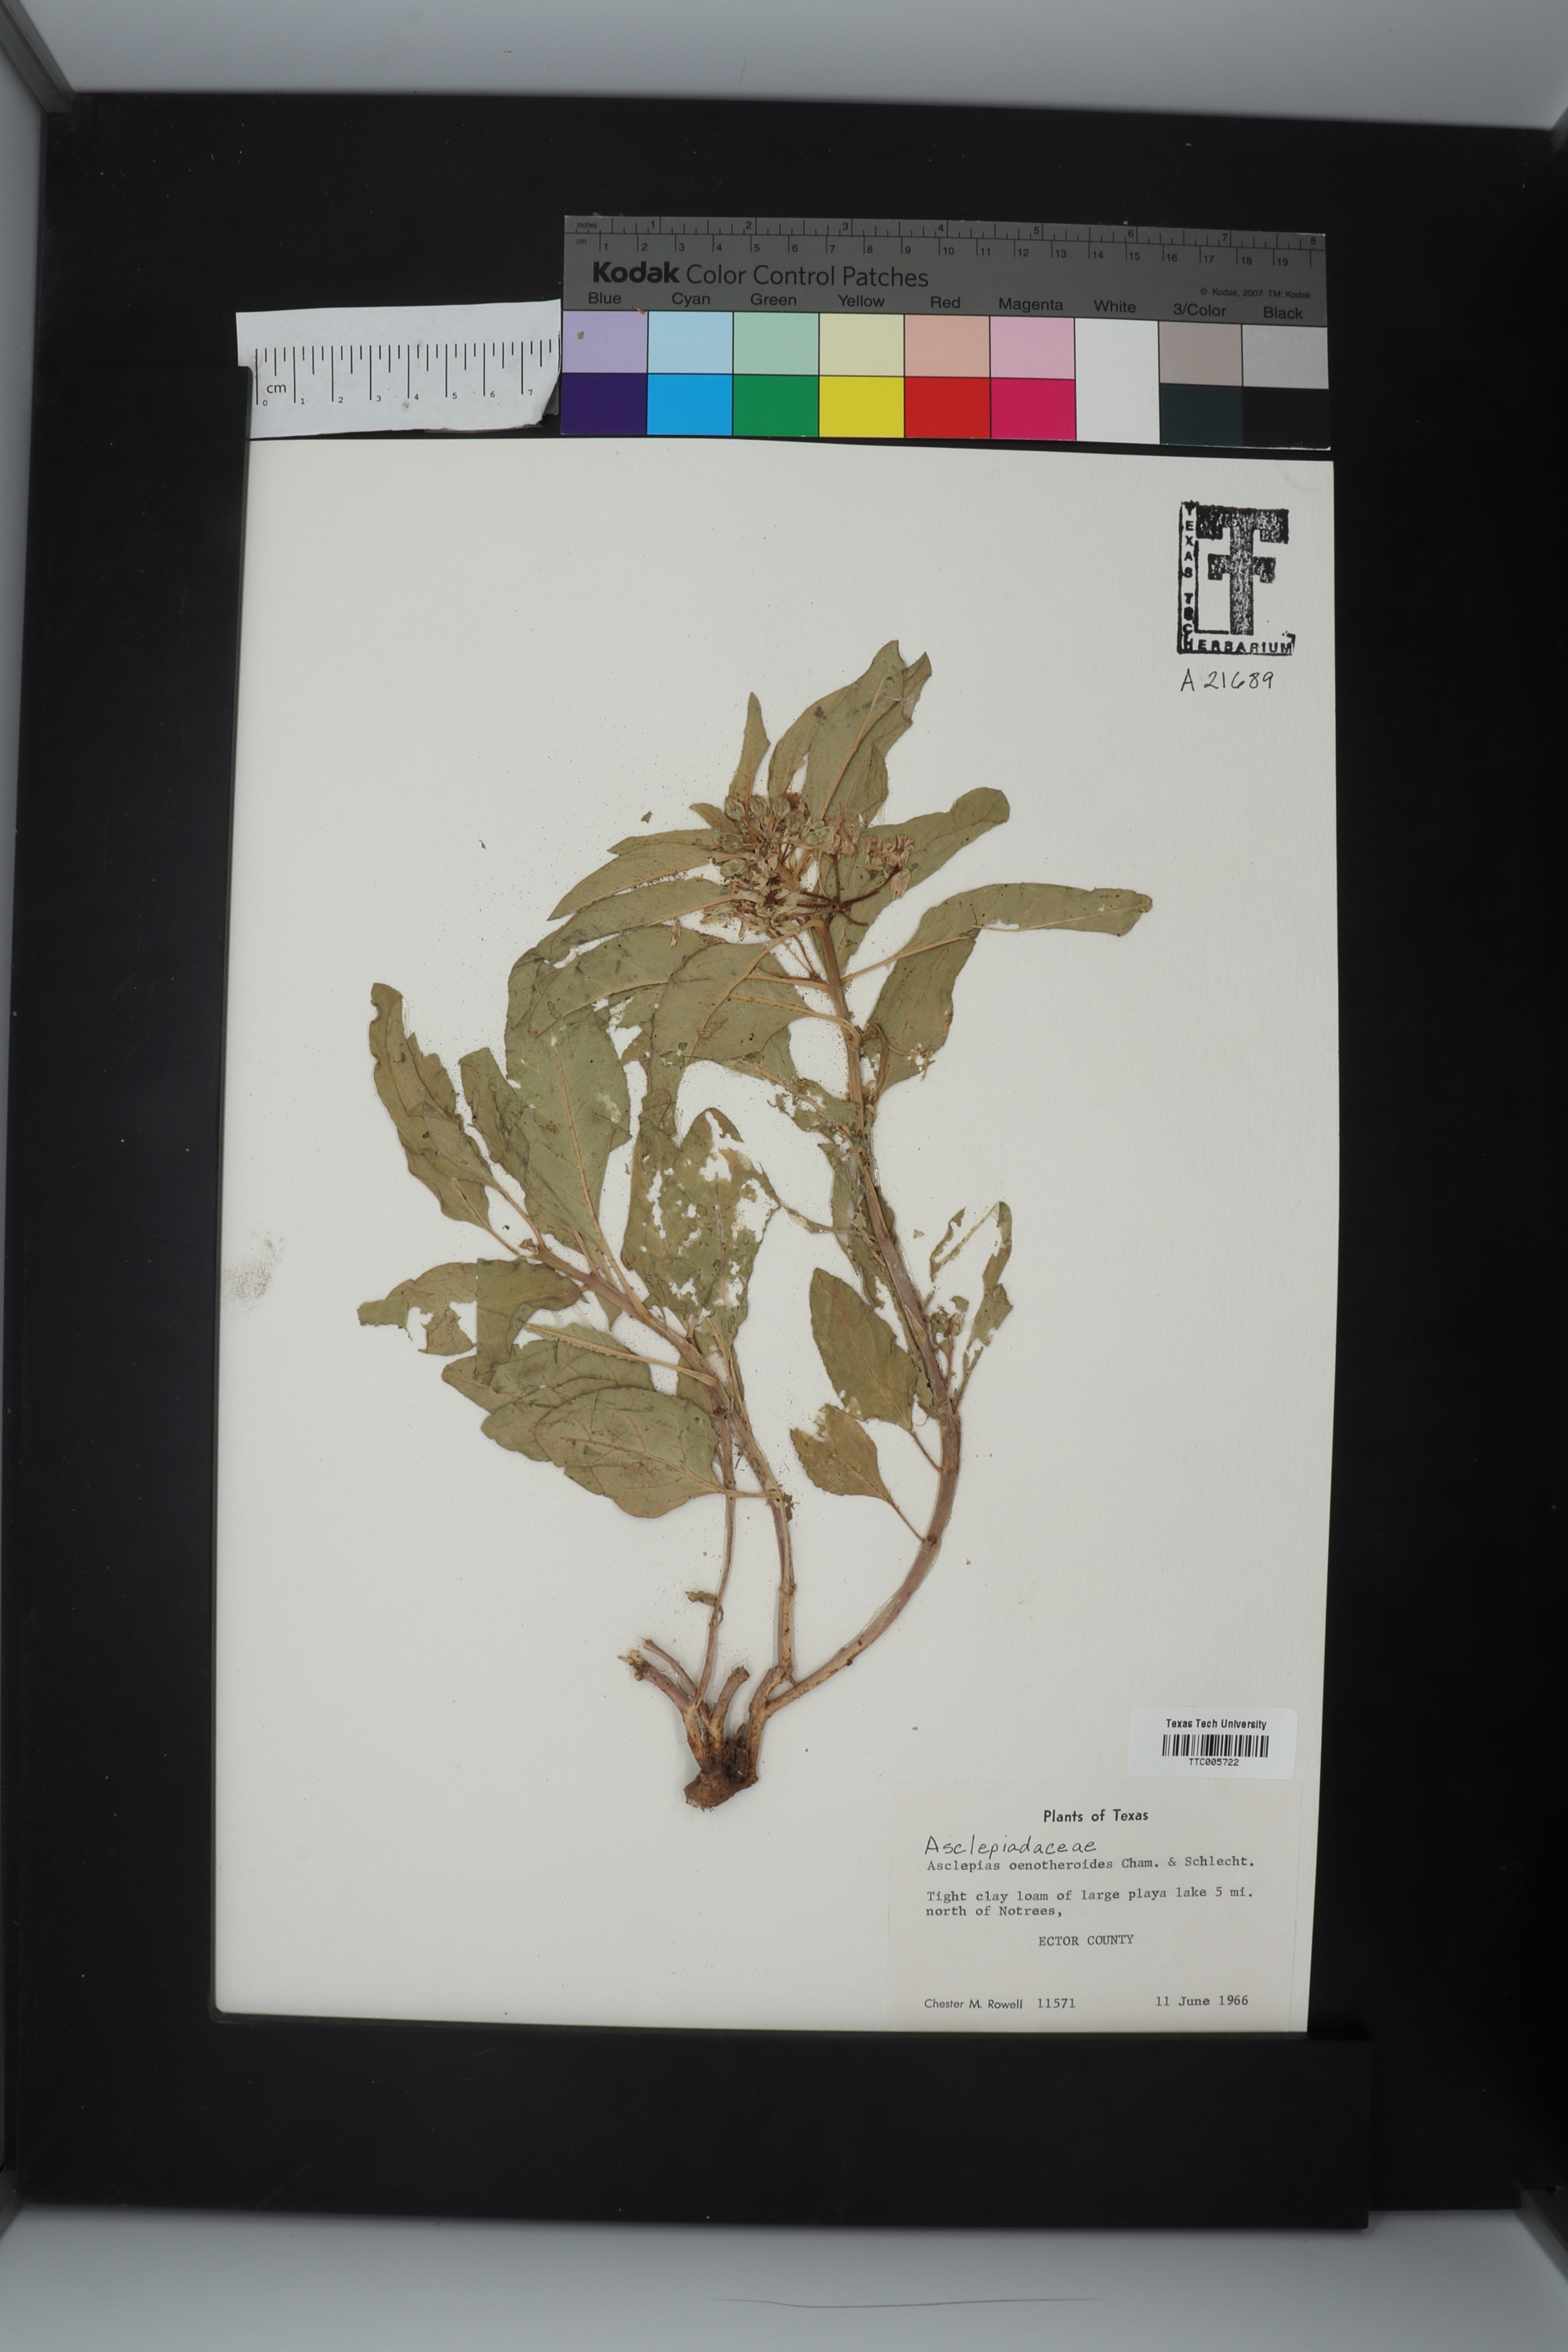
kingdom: Plantae
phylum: Tracheophyta
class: Magnoliopsida
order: Gentianales
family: Apocynaceae
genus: Asclepias
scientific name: Asclepias oenotheroides
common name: Zizotes milkweed
